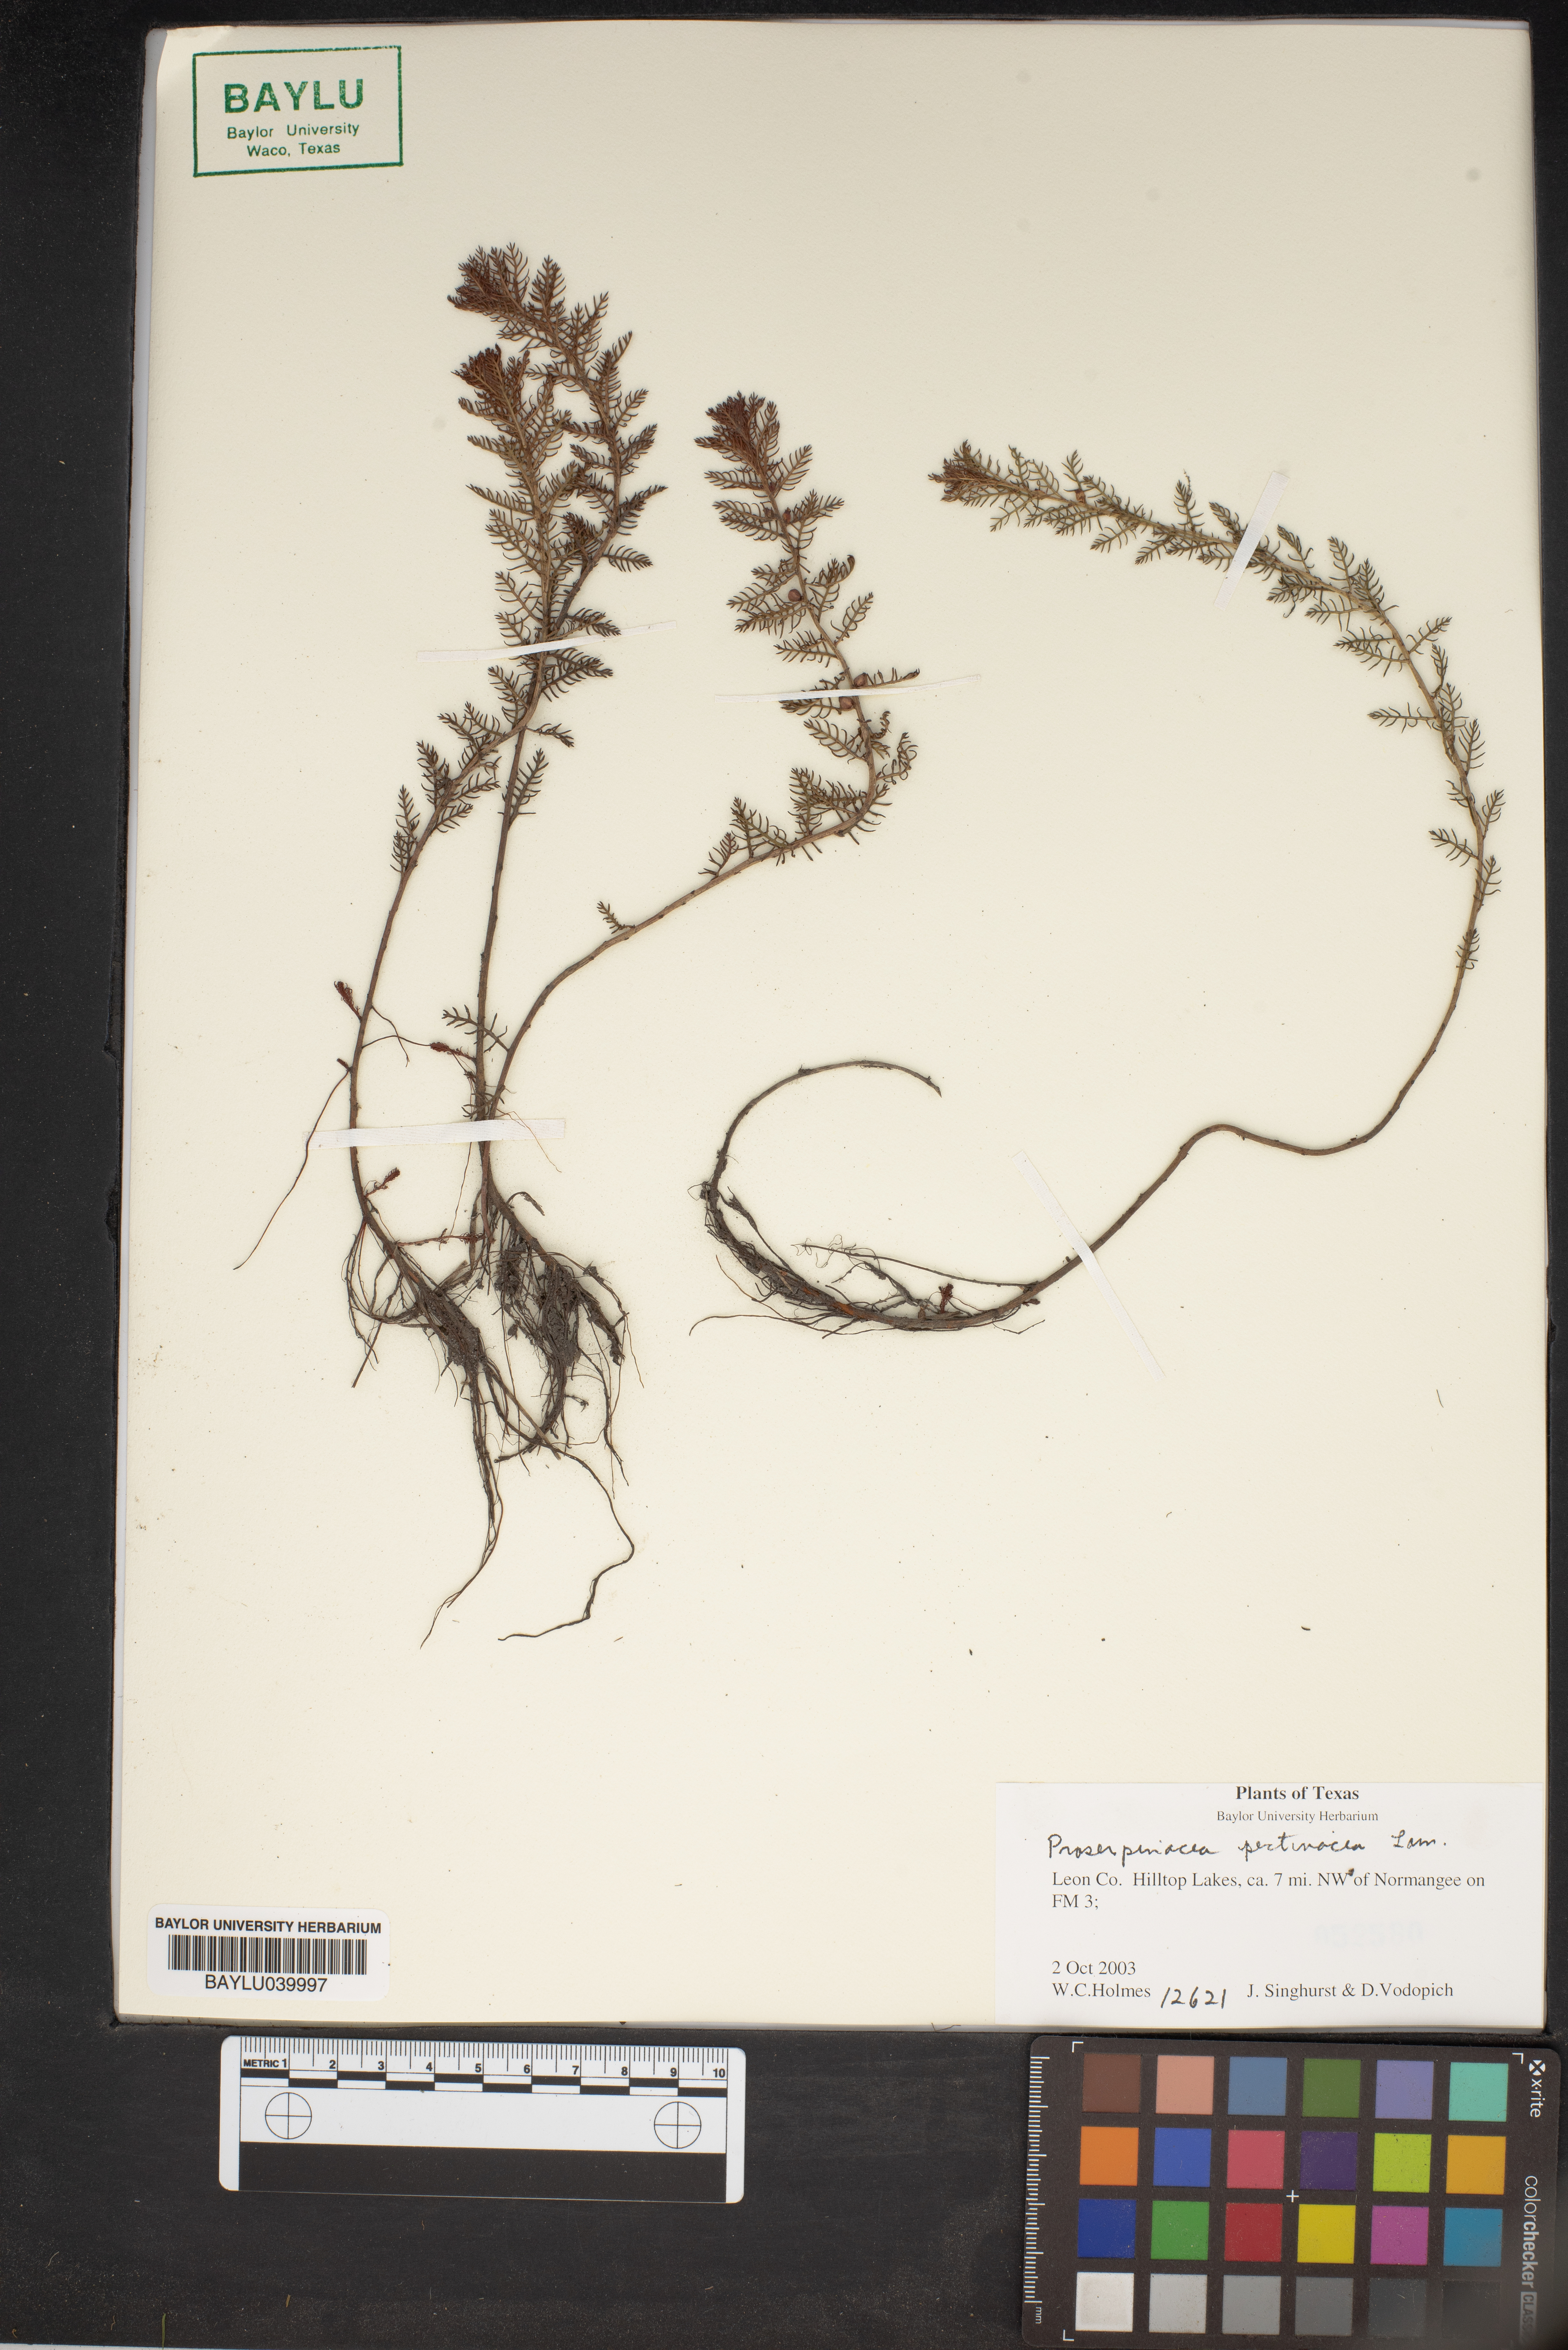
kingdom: Plantae
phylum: Tracheophyta
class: Magnoliopsida
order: Saxifragales
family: Haloragaceae
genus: Proserpinaca
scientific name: Proserpinaca pectinata
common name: Comb-leaved mermaidweed
